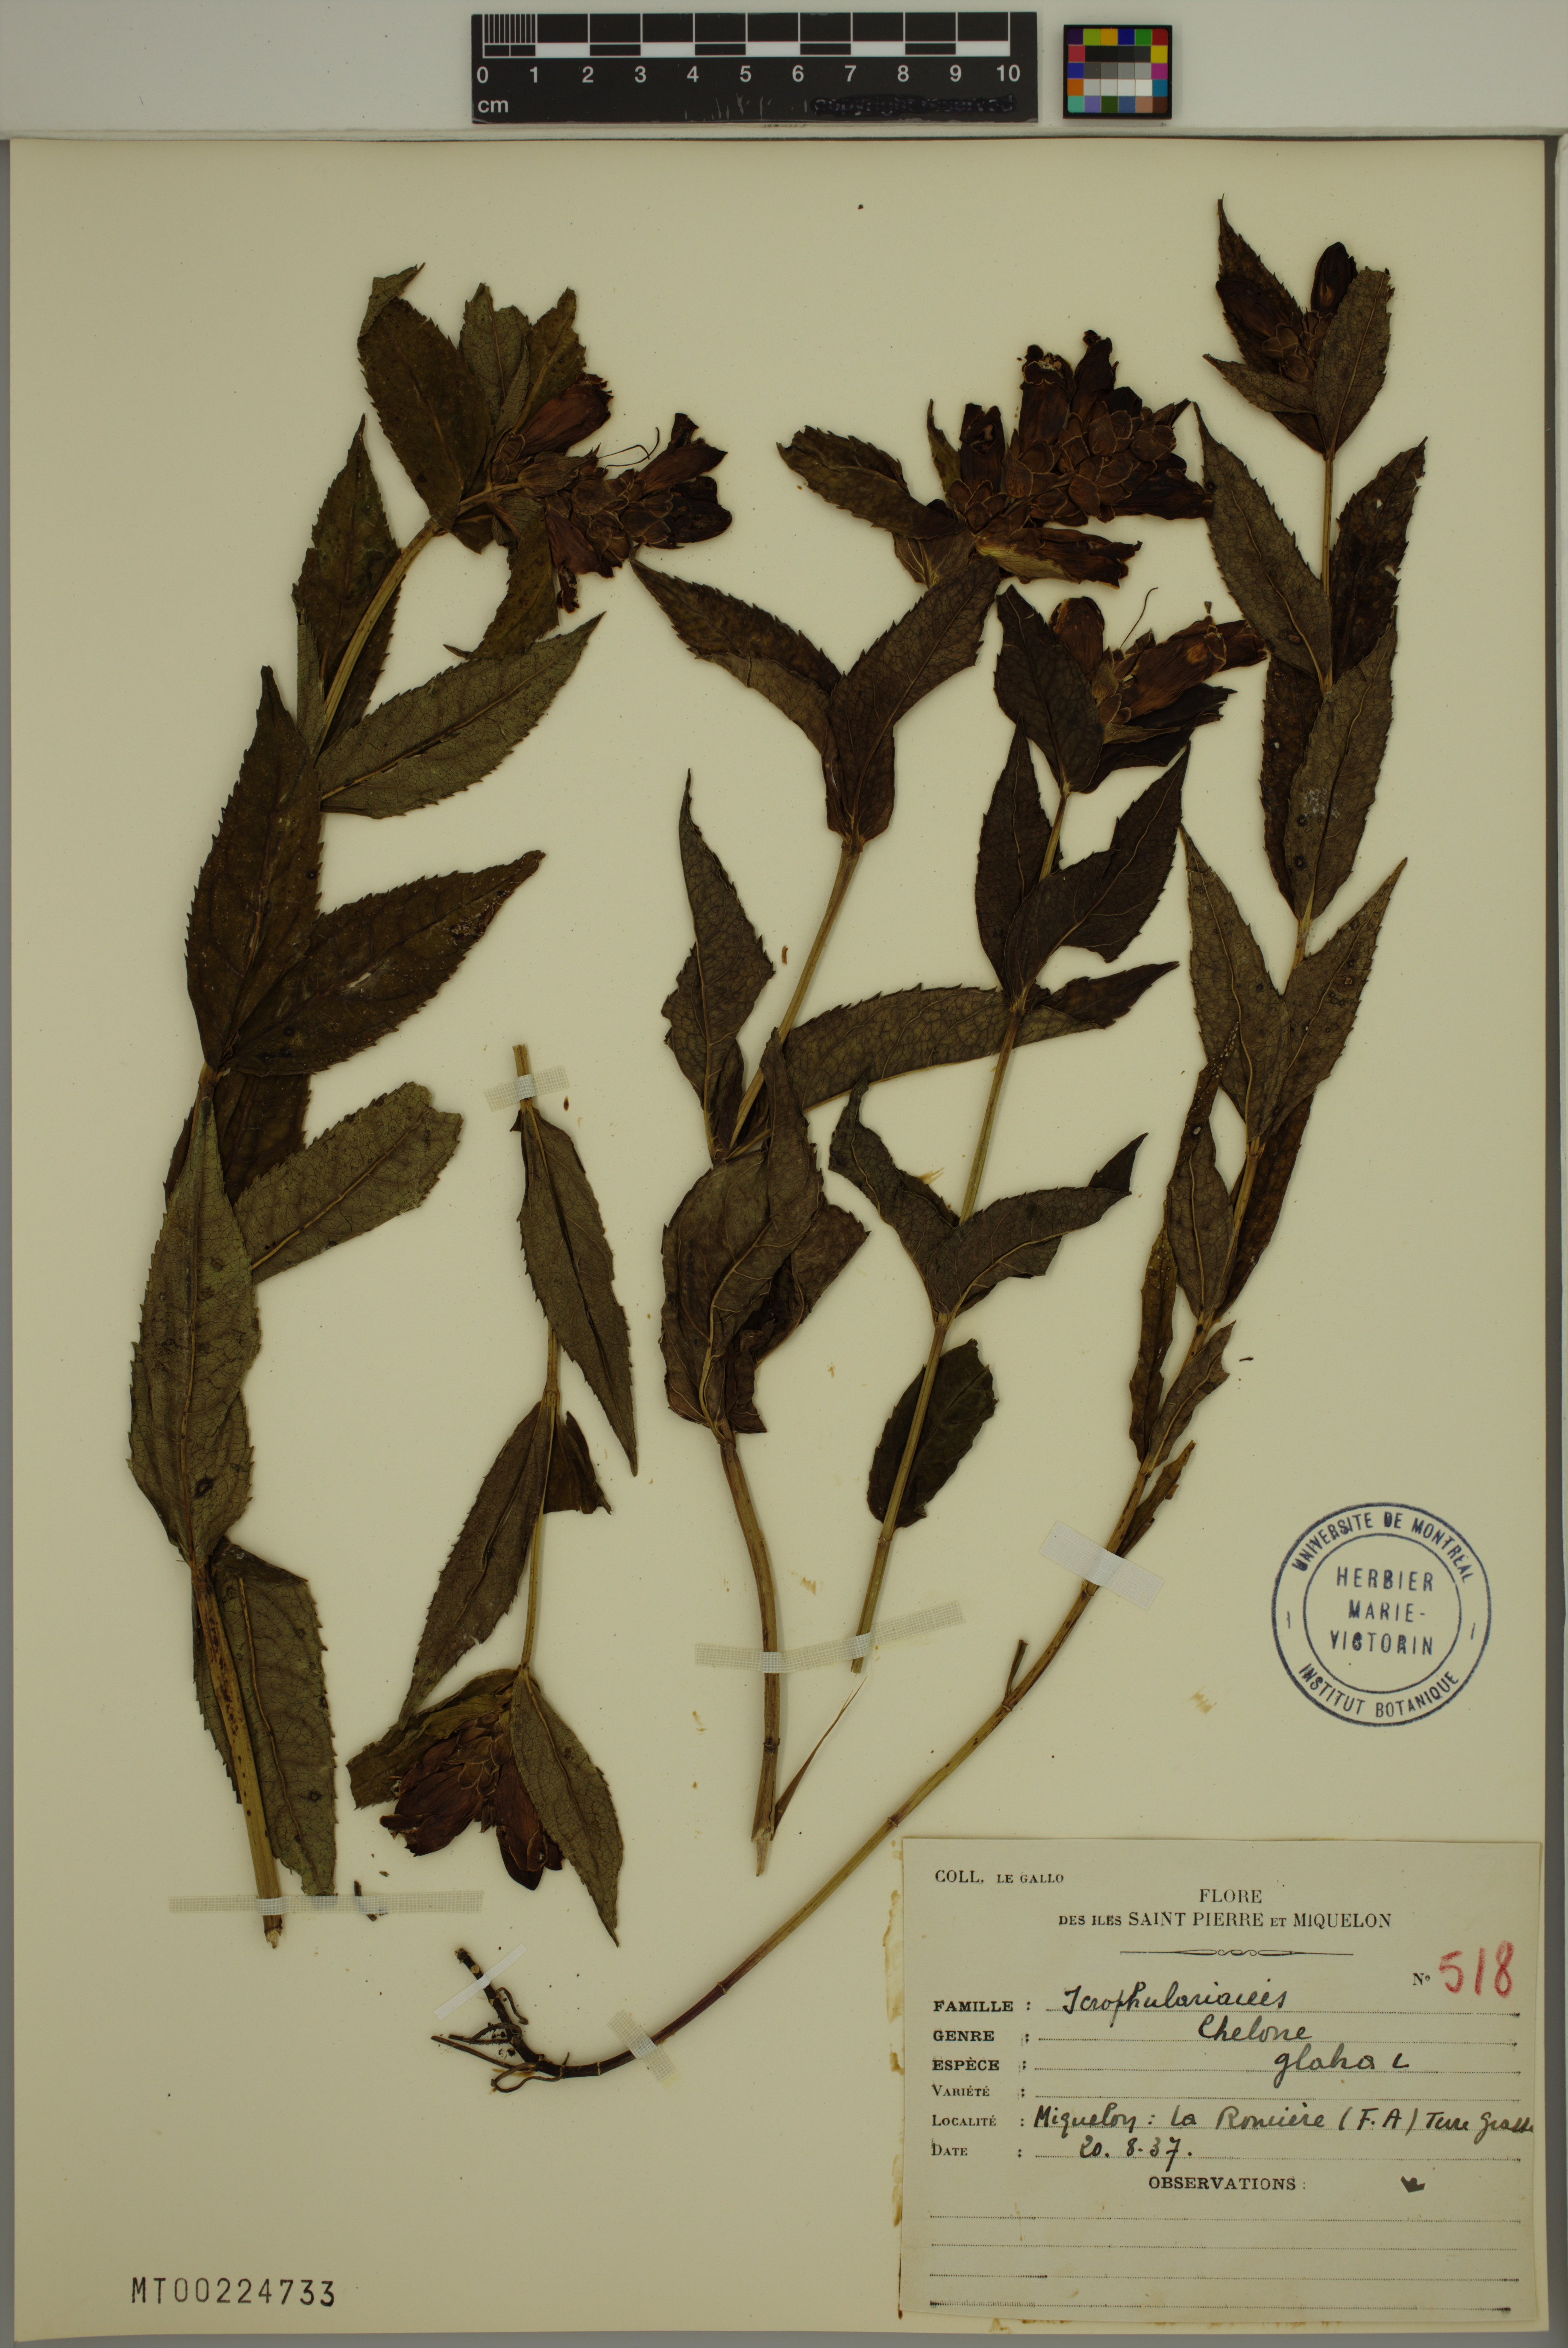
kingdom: Plantae
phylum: Tracheophyta
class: Magnoliopsida
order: Lamiales
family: Plantaginaceae
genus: Chelone
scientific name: Chelone glabra
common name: Snakehead
